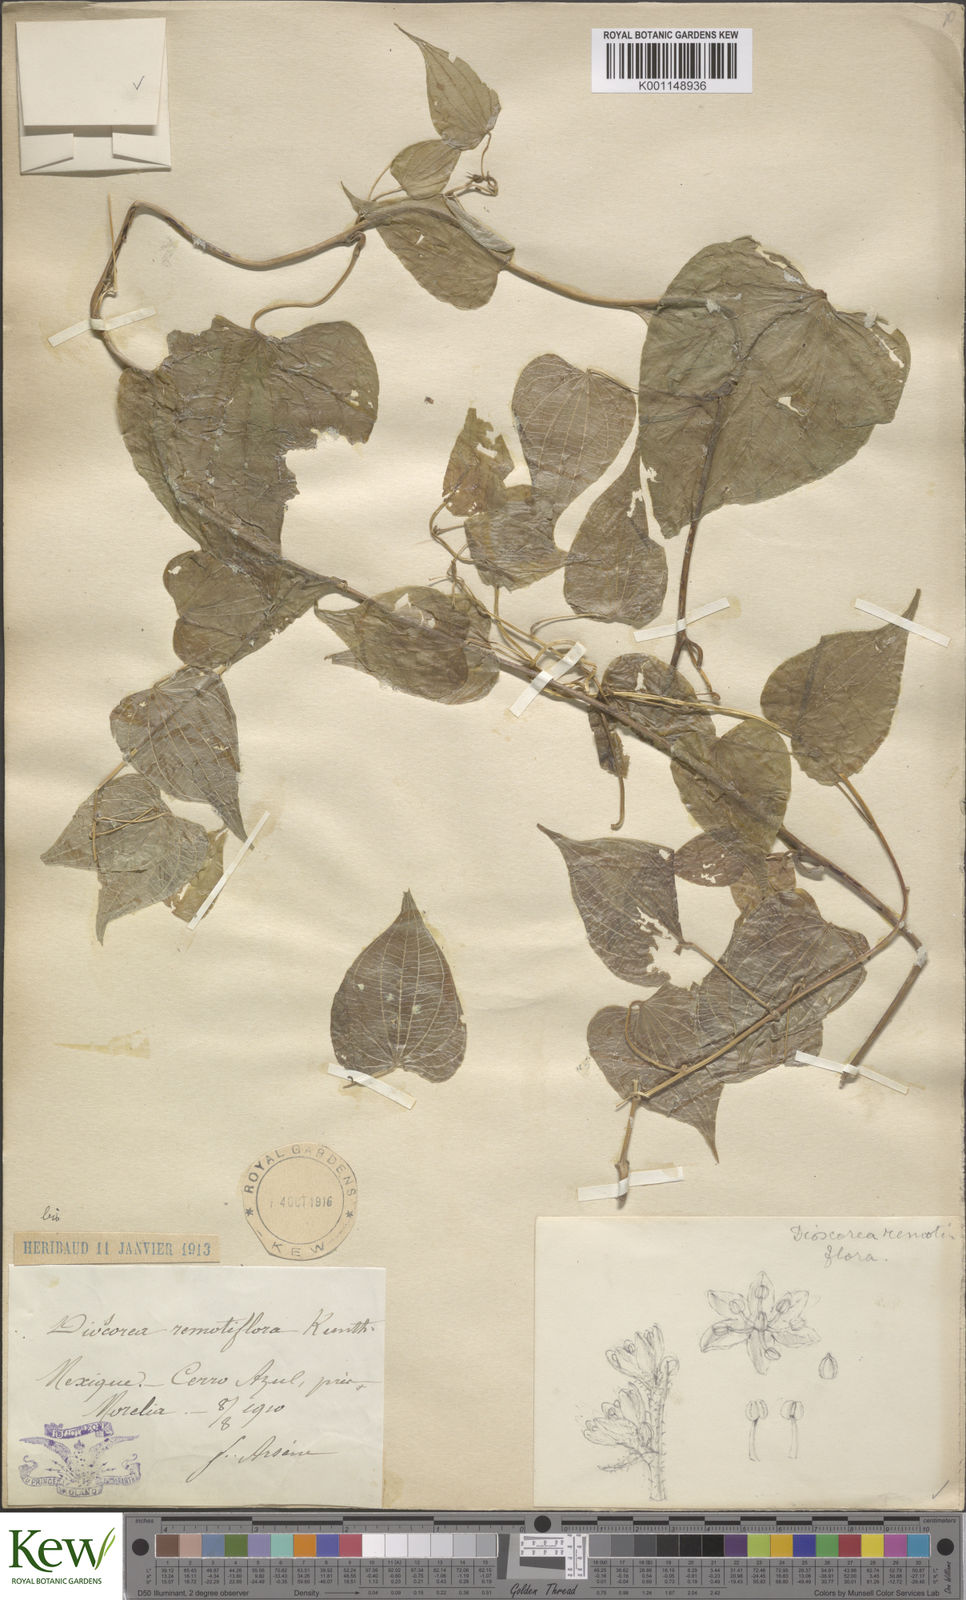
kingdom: Plantae
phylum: Tracheophyta
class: Liliopsida
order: Dioscoreales
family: Dioscoreaceae
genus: Dioscorea
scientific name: Dioscorea remotiflora
